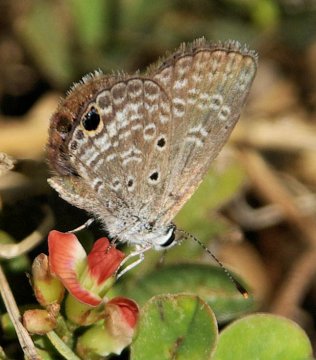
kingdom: Animalia
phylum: Arthropoda
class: Insecta
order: Lepidoptera
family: Lycaenidae
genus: Hemiargus
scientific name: Hemiargus ceraunus
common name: Ceraunus Blue
